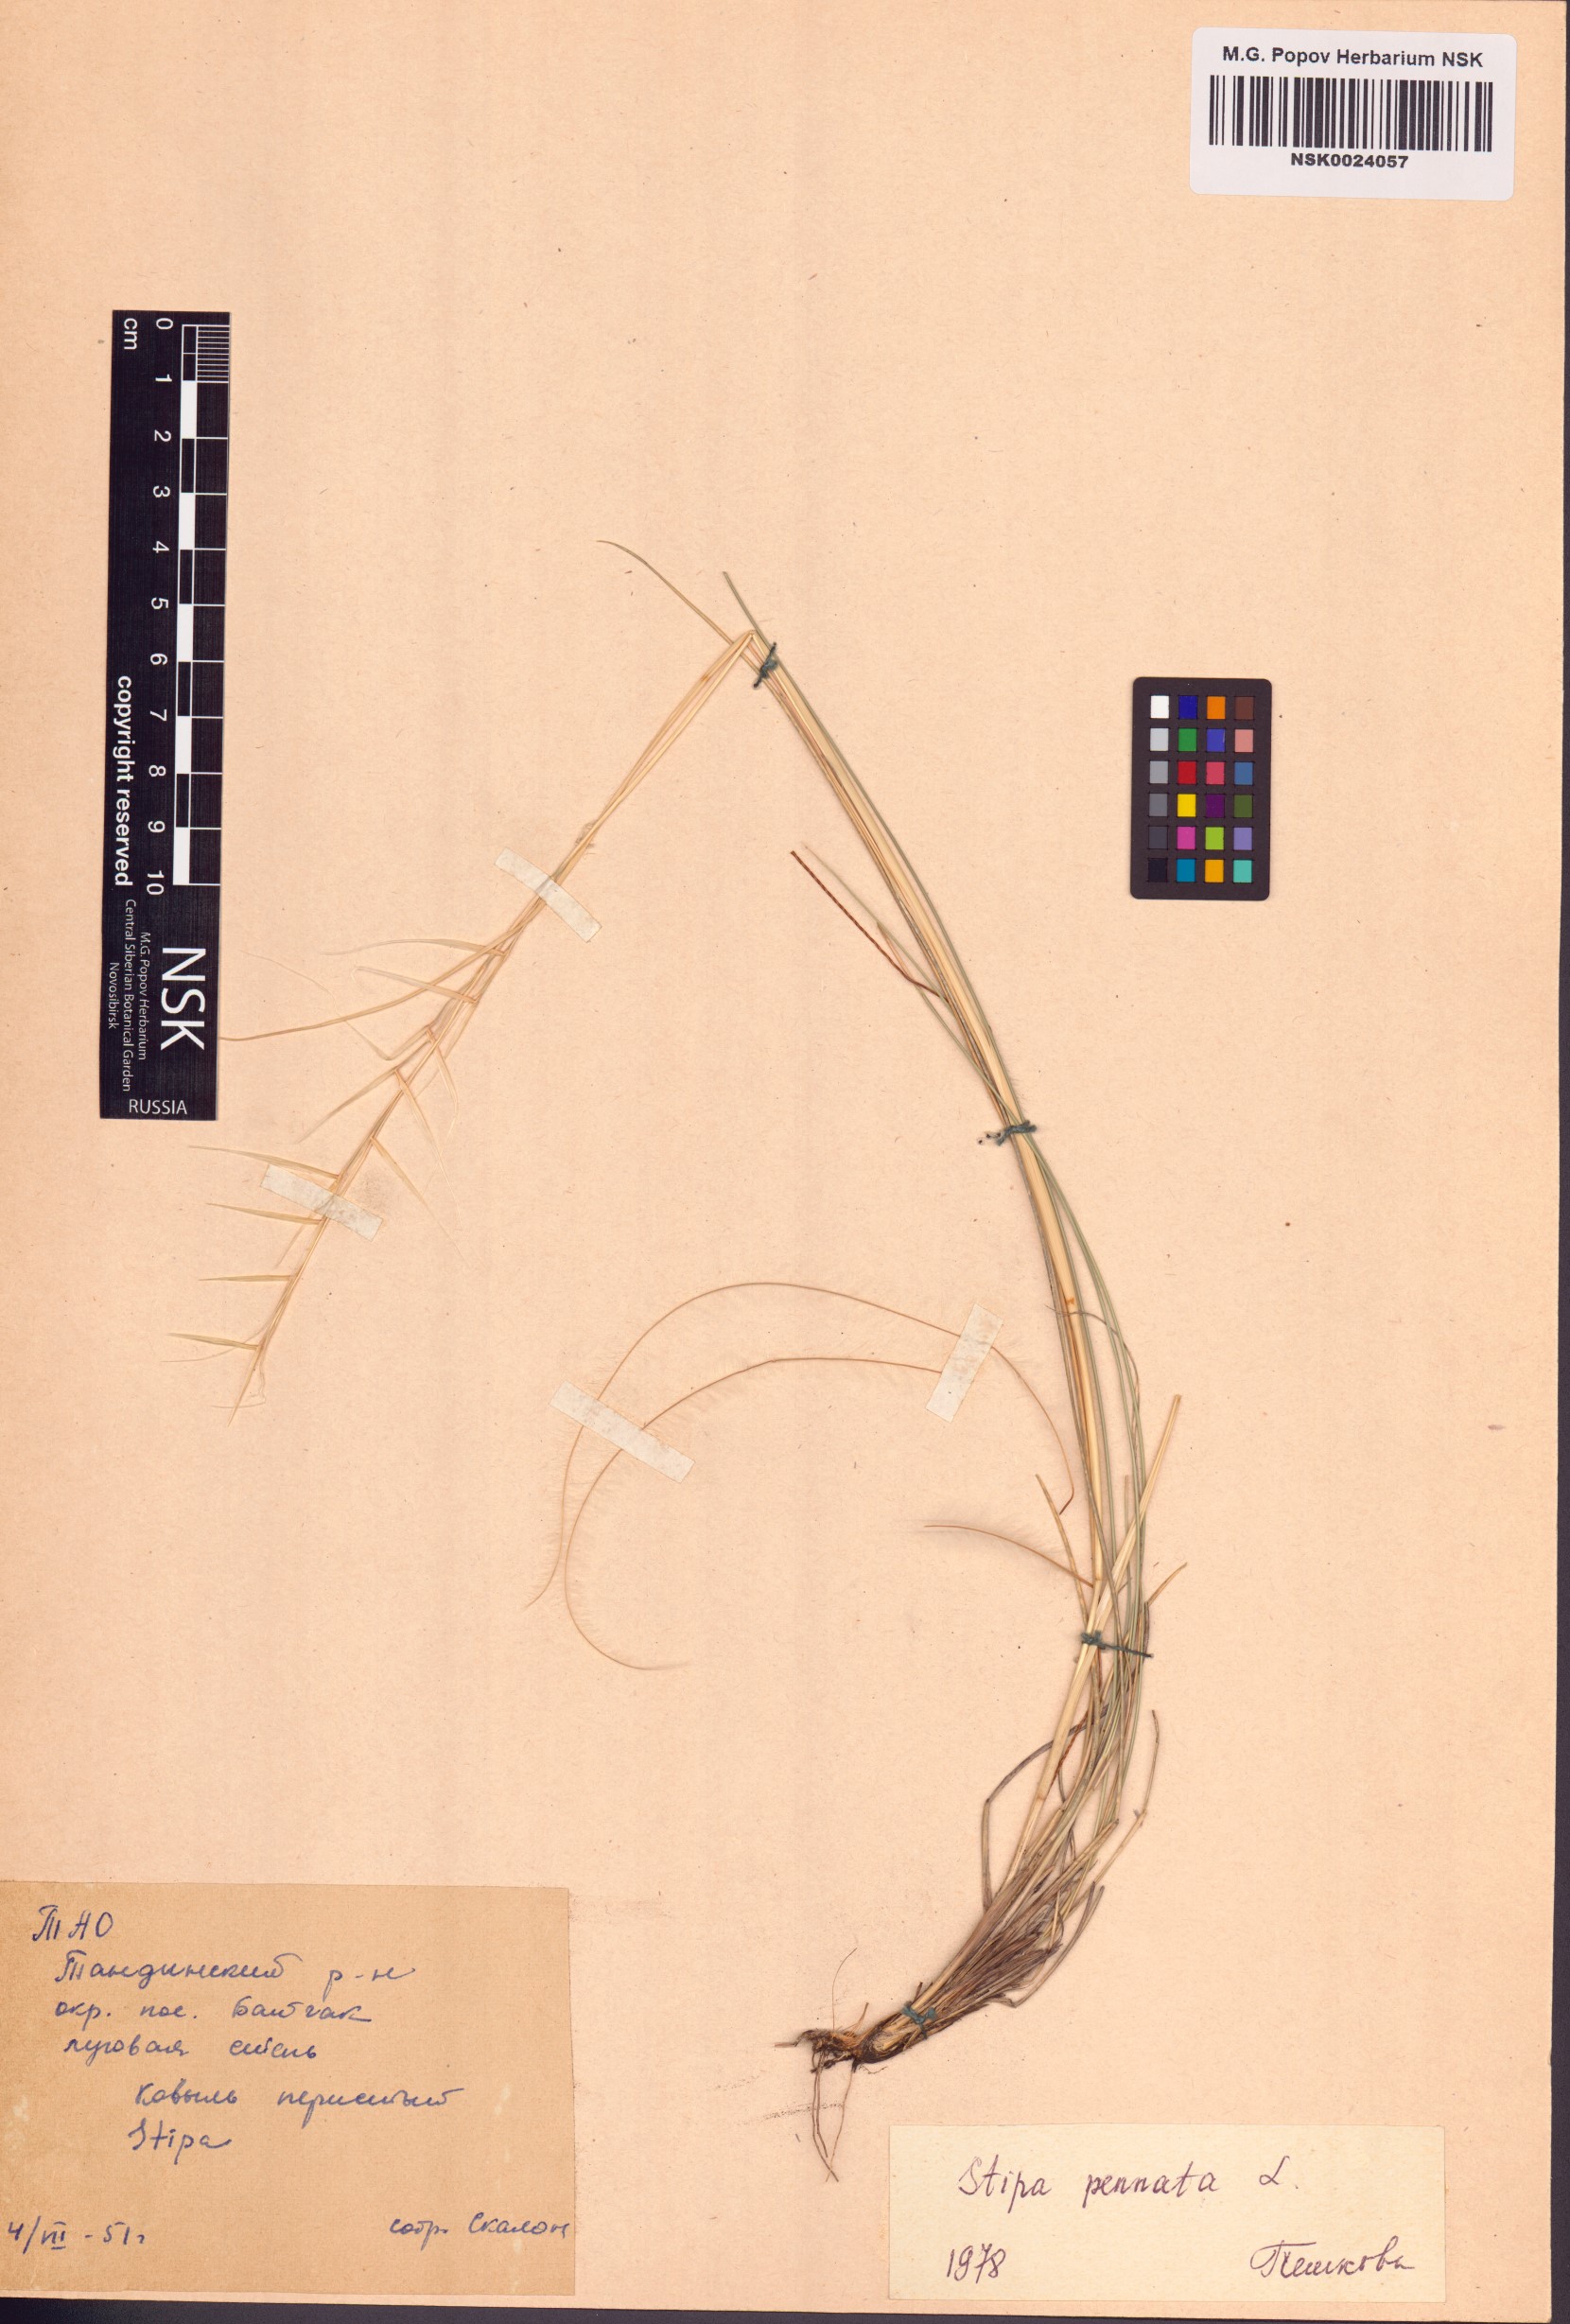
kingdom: Plantae
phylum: Tracheophyta
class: Liliopsida
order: Poales
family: Poaceae
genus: Stipa
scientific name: Stipa pennata
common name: European feather grass
